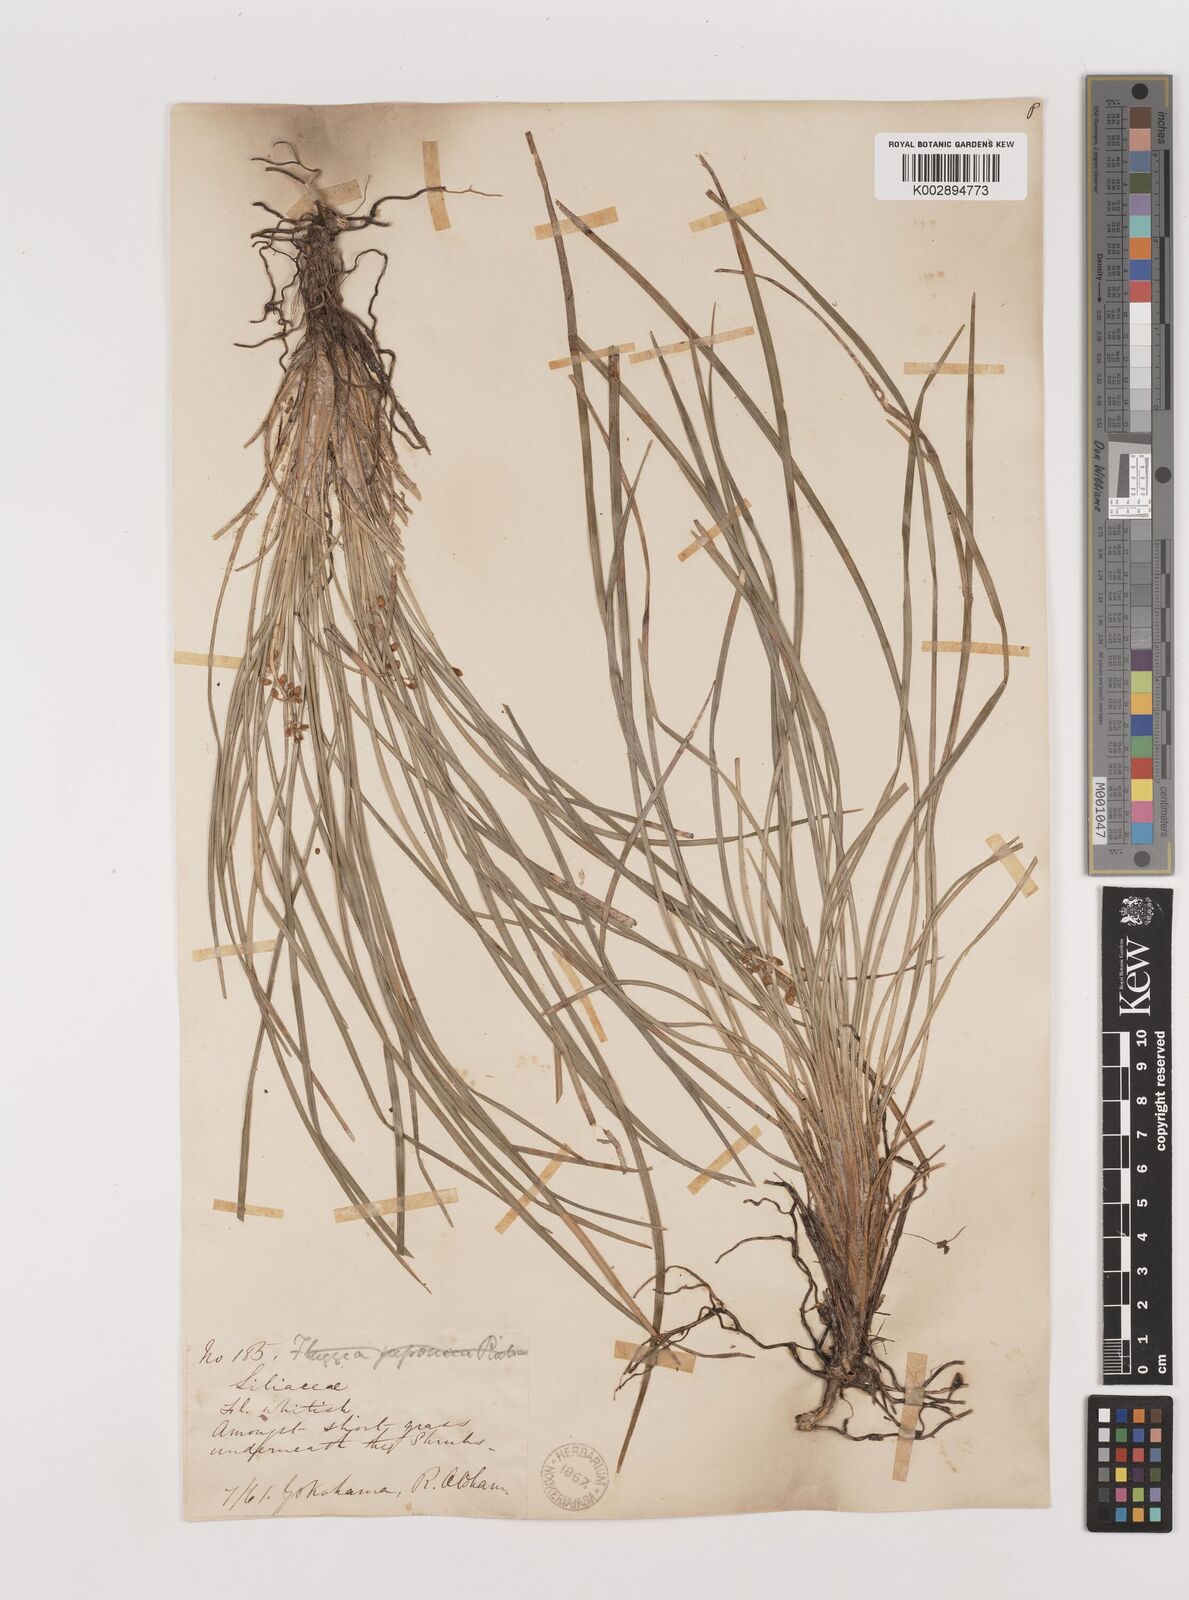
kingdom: Plantae
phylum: Tracheophyta
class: Liliopsida
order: Asparagales
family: Asparagaceae
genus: Ophiopogon
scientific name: Ophiopogon japonicus
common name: Dwarf lilyturf
